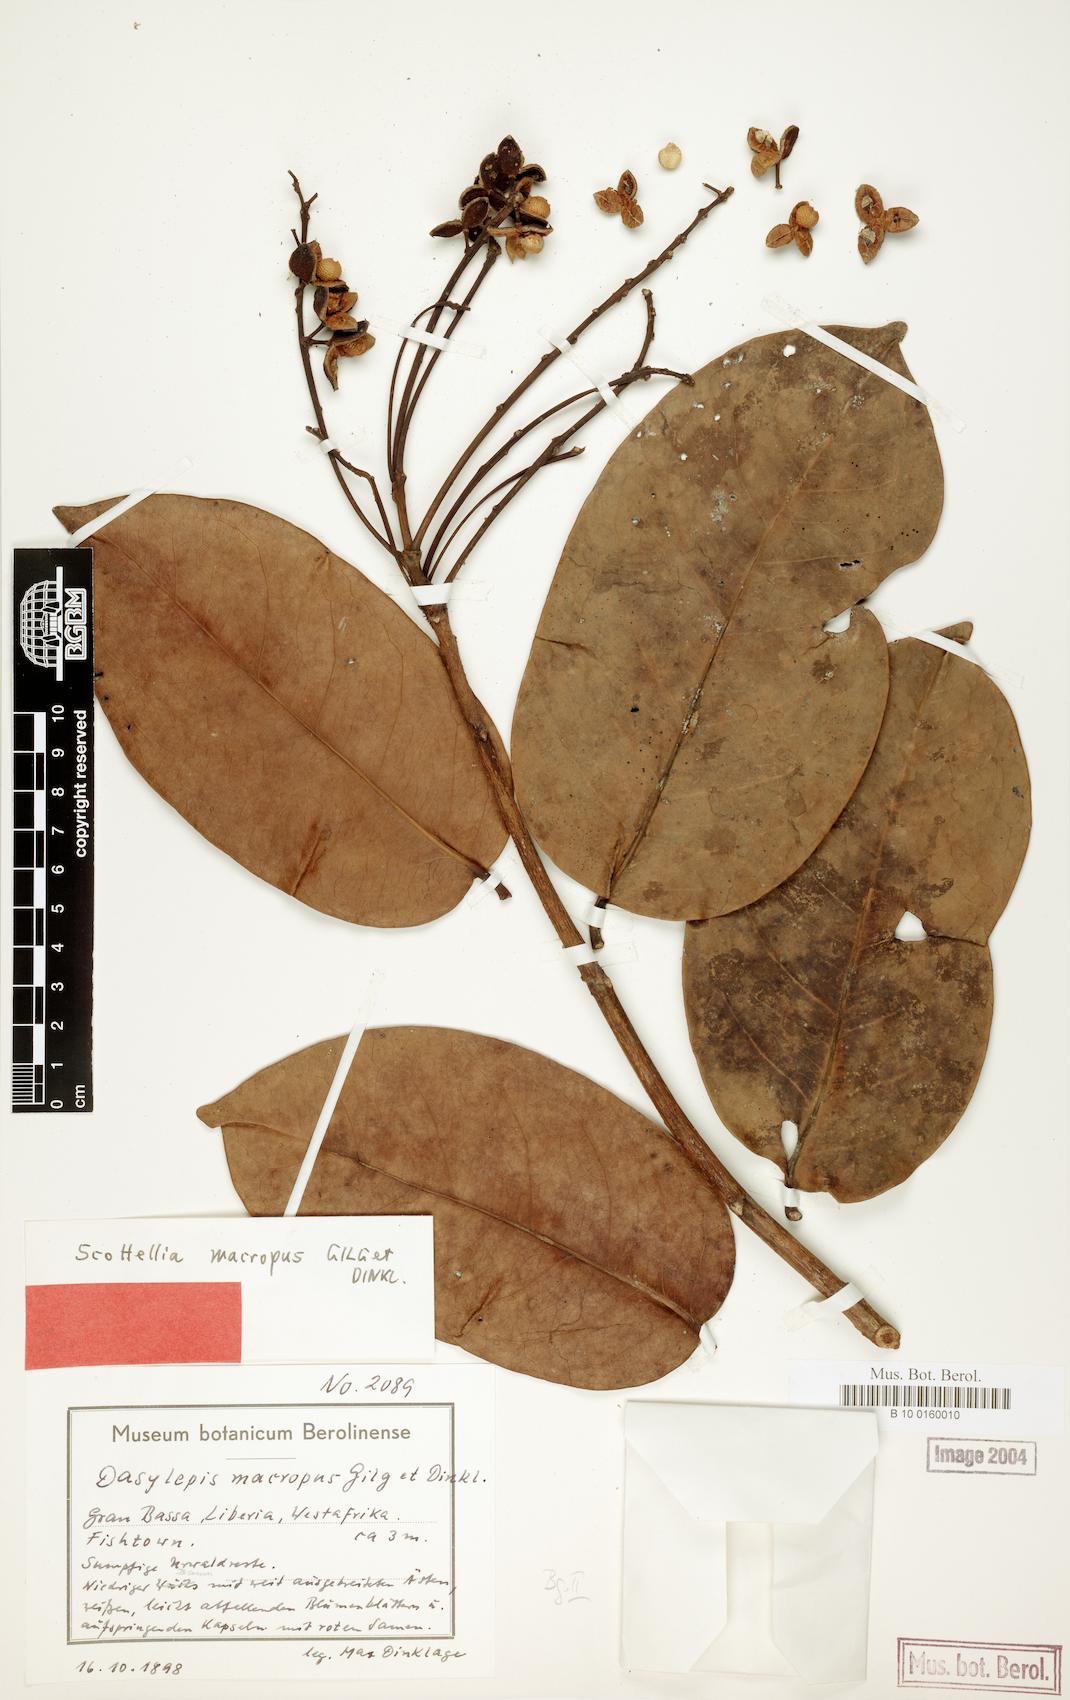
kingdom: Plantae
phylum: Tracheophyta
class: Magnoliopsida
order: Malpighiales
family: Achariaceae
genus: Scottellia
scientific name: Scottellia leonensis
